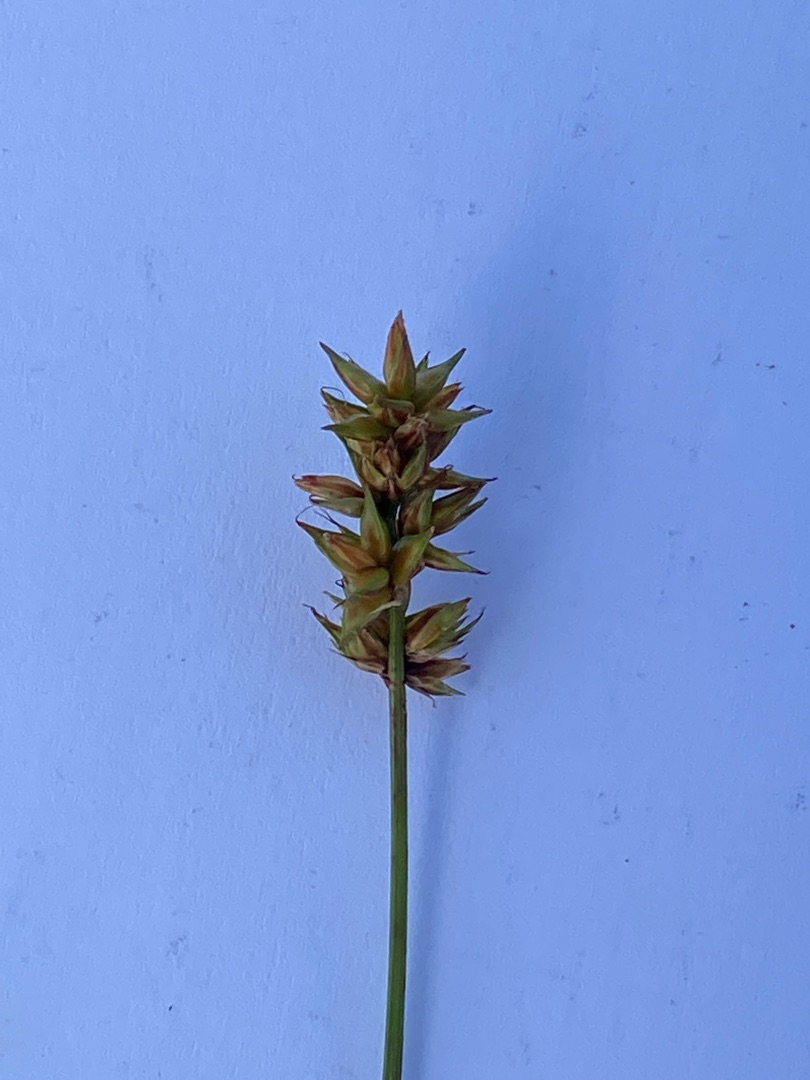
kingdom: Plantae
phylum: Tracheophyta
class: Liliopsida
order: Poales
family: Cyperaceae
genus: Carex
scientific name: Carex spicata
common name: Spidskapslet star
